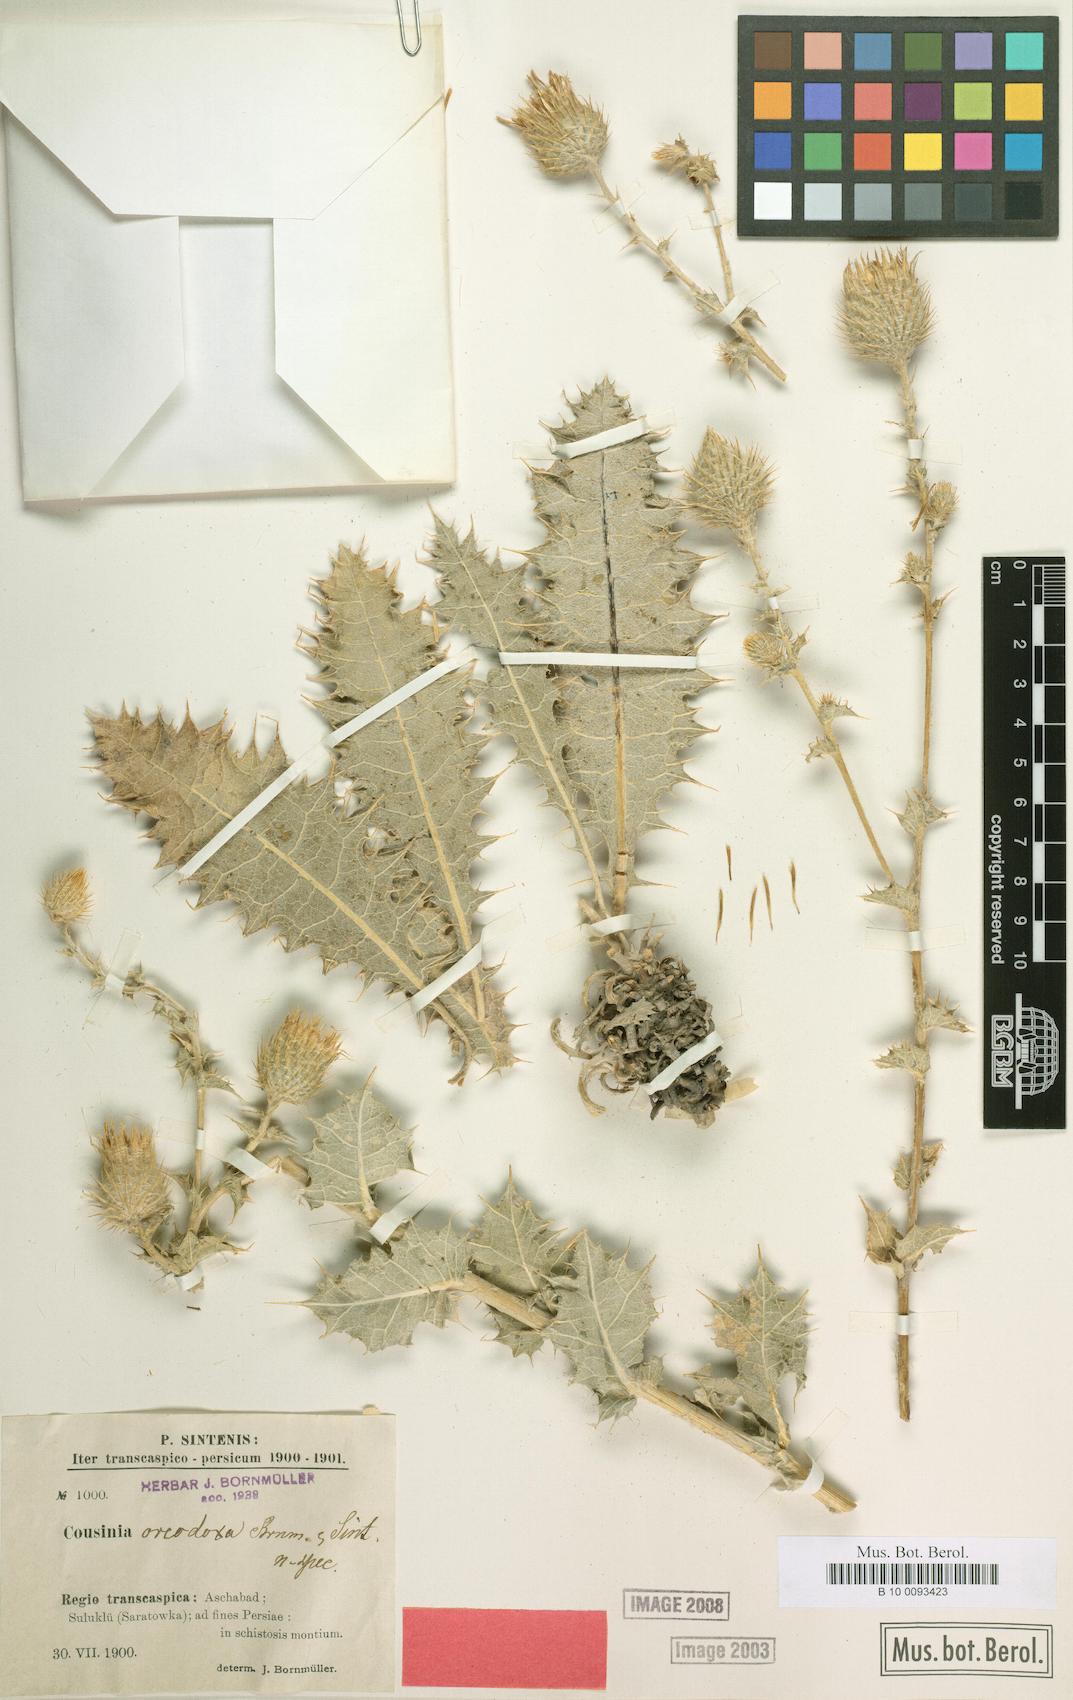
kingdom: Plantae
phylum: Tracheophyta
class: Magnoliopsida
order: Asterales
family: Asteraceae
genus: Cousinia
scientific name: Cousinia oreodoxa
